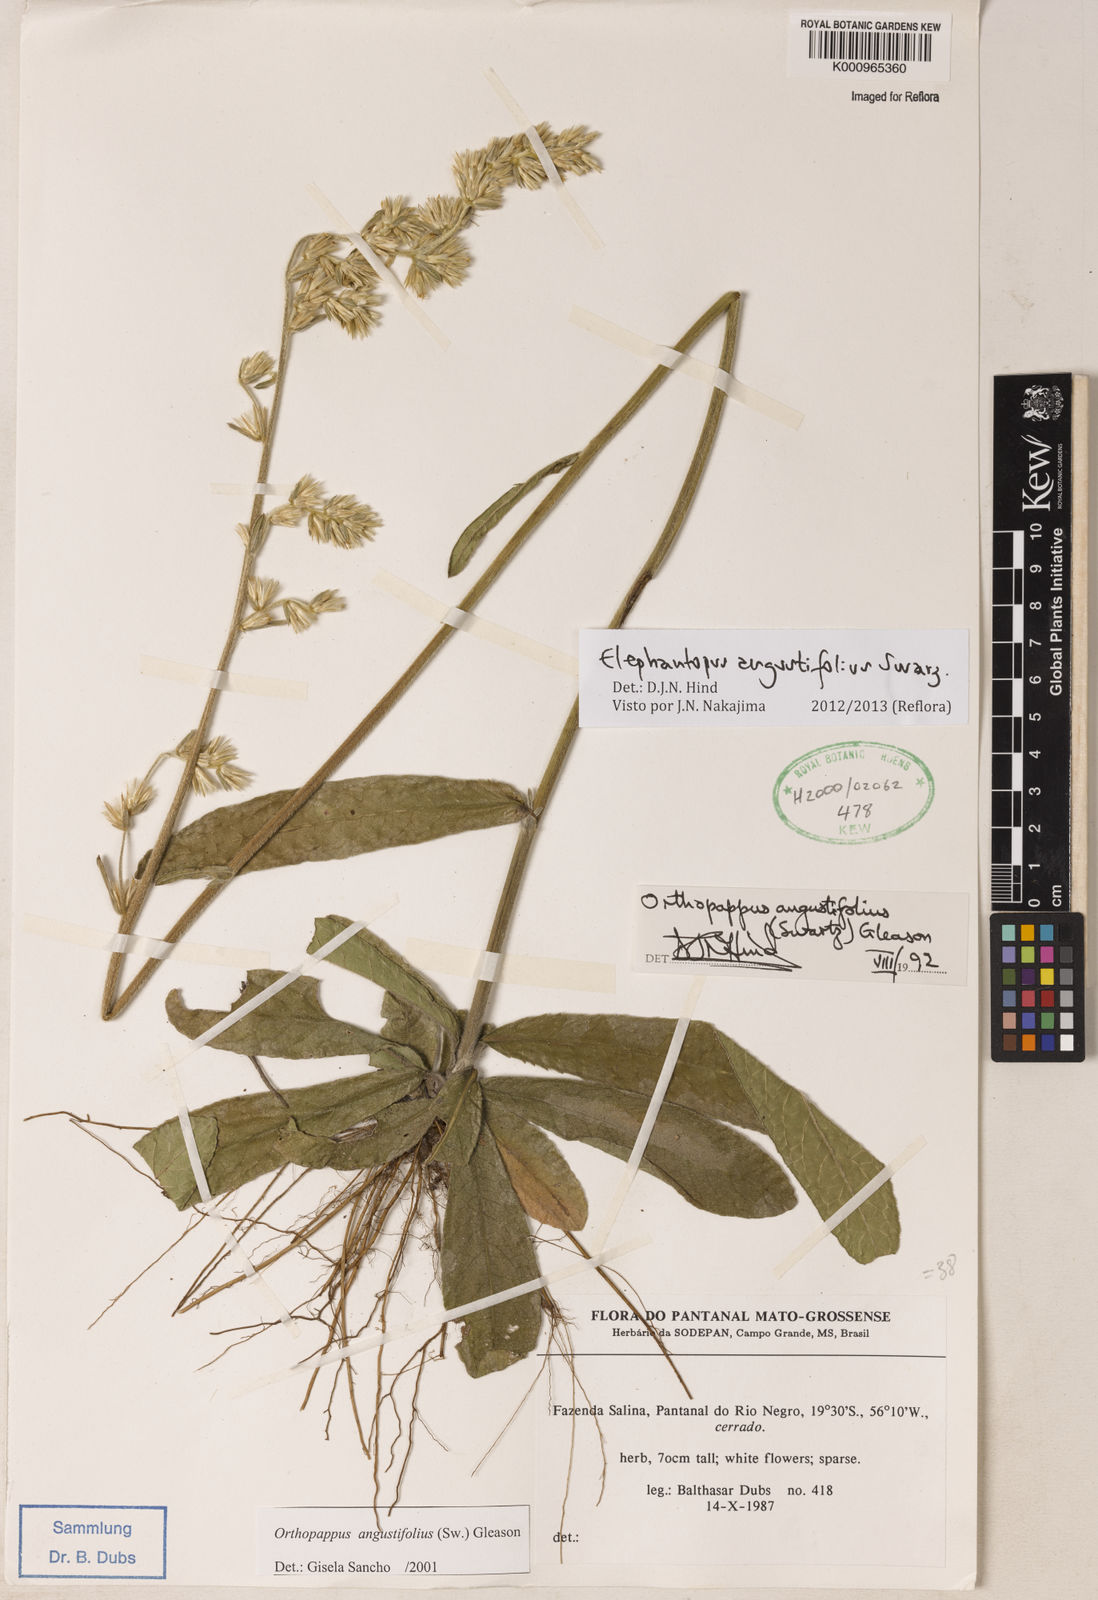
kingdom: Plantae
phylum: Tracheophyta
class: Magnoliopsida
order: Asterales
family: Asteraceae
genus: Orthopappus
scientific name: Orthopappus angustifolius
